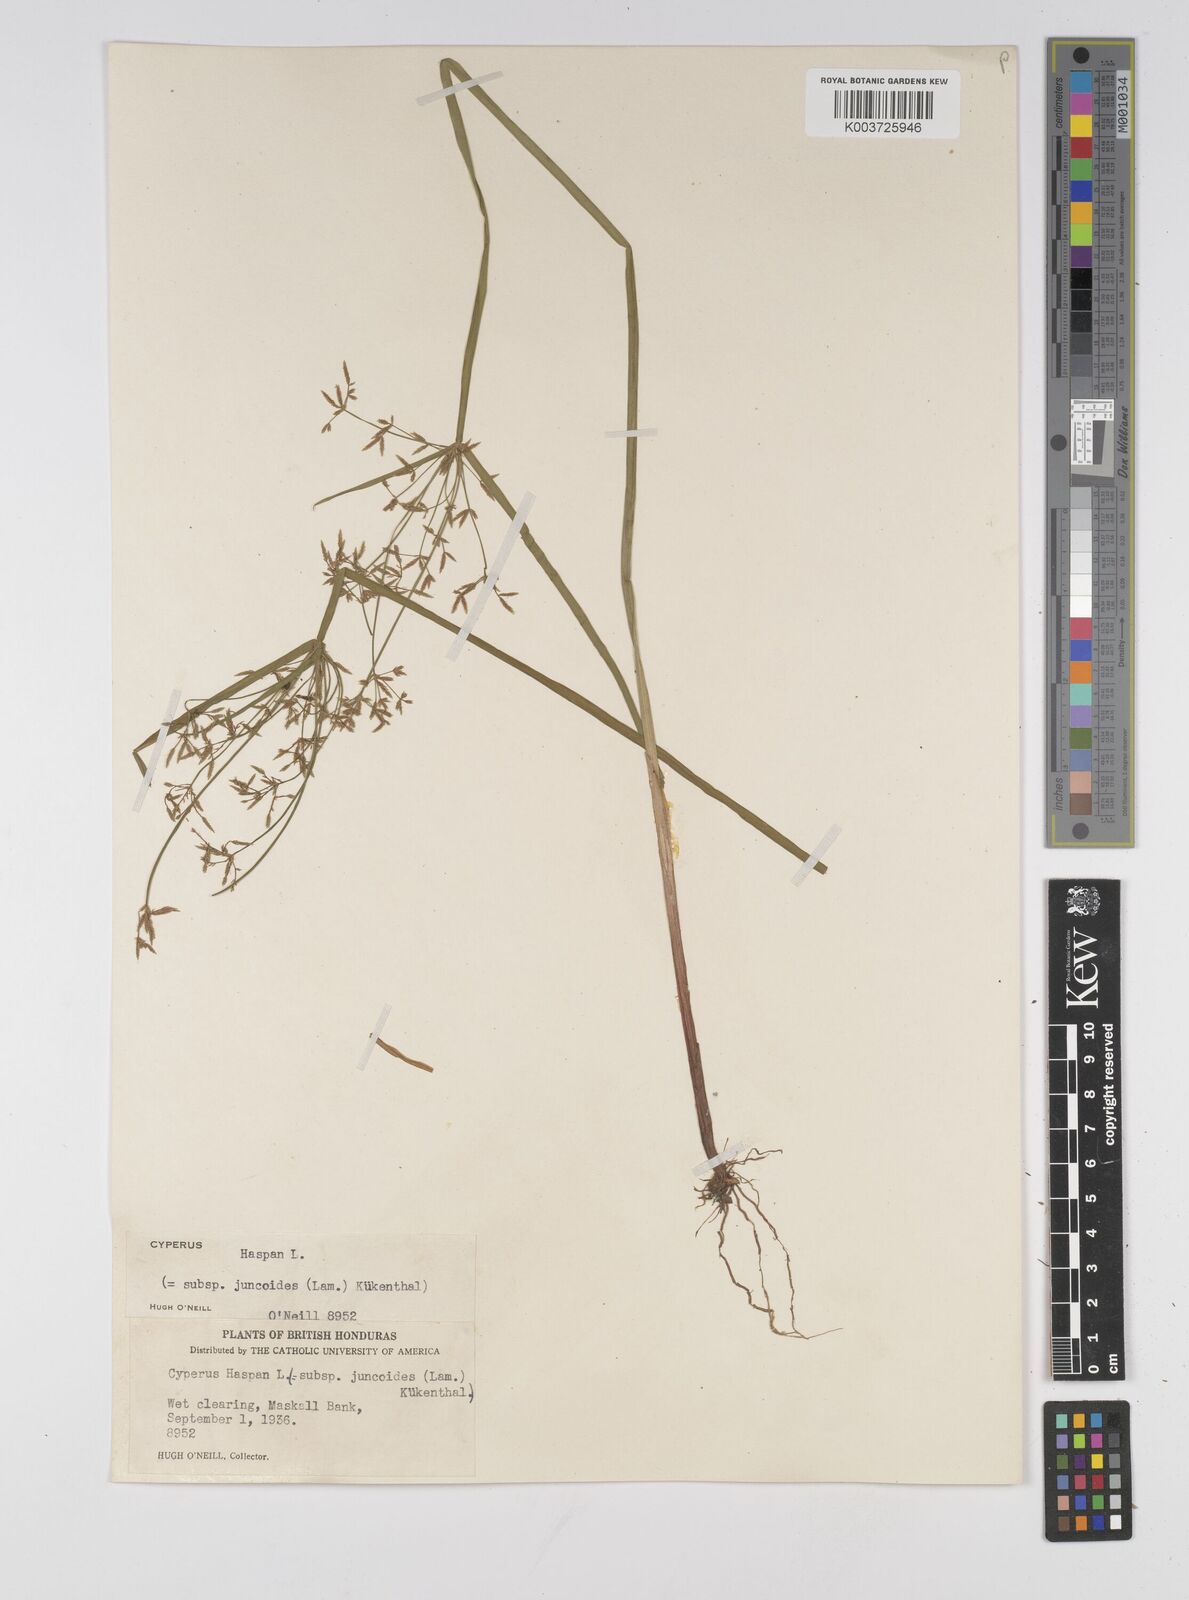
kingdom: Plantae
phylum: Tracheophyta
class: Liliopsida
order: Poales
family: Cyperaceae
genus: Cyperus
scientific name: Cyperus haspan
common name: Haspan flatsedge
